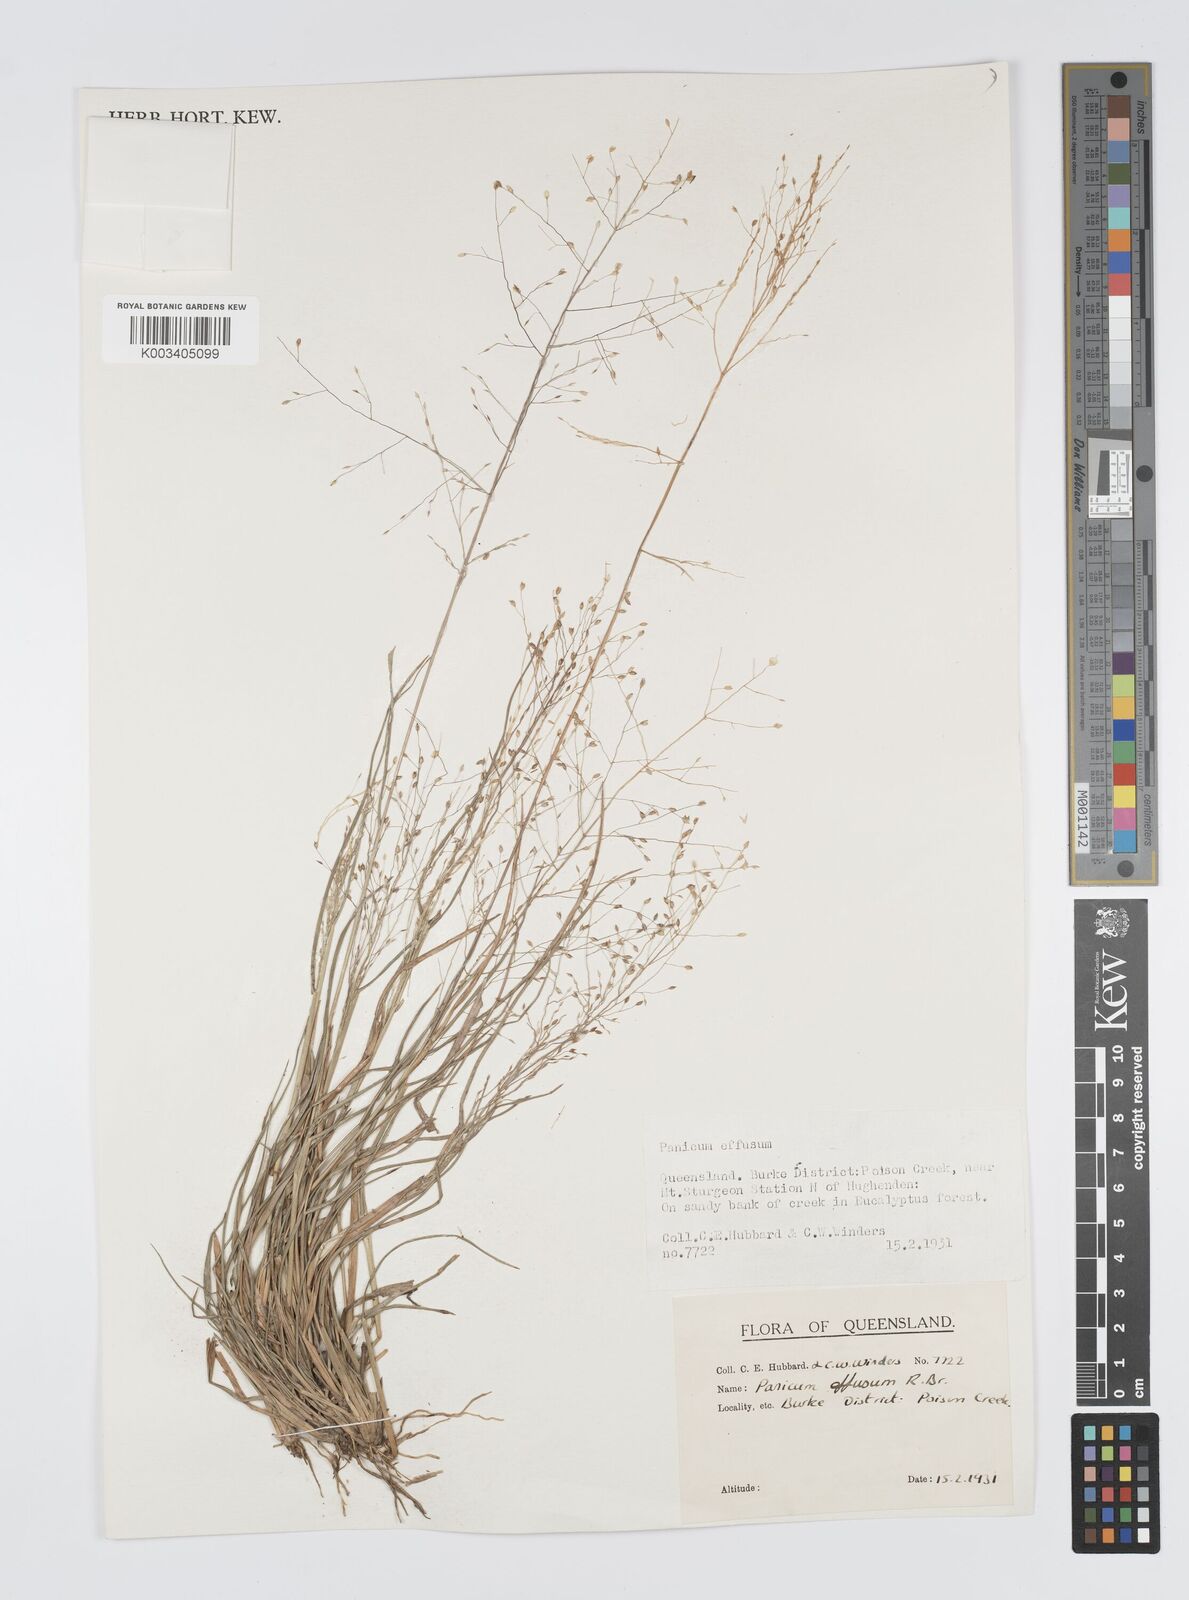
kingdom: Plantae
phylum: Tracheophyta
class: Liliopsida
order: Poales
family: Poaceae
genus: Panicum
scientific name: Panicum effusum
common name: Hairy panic grass
